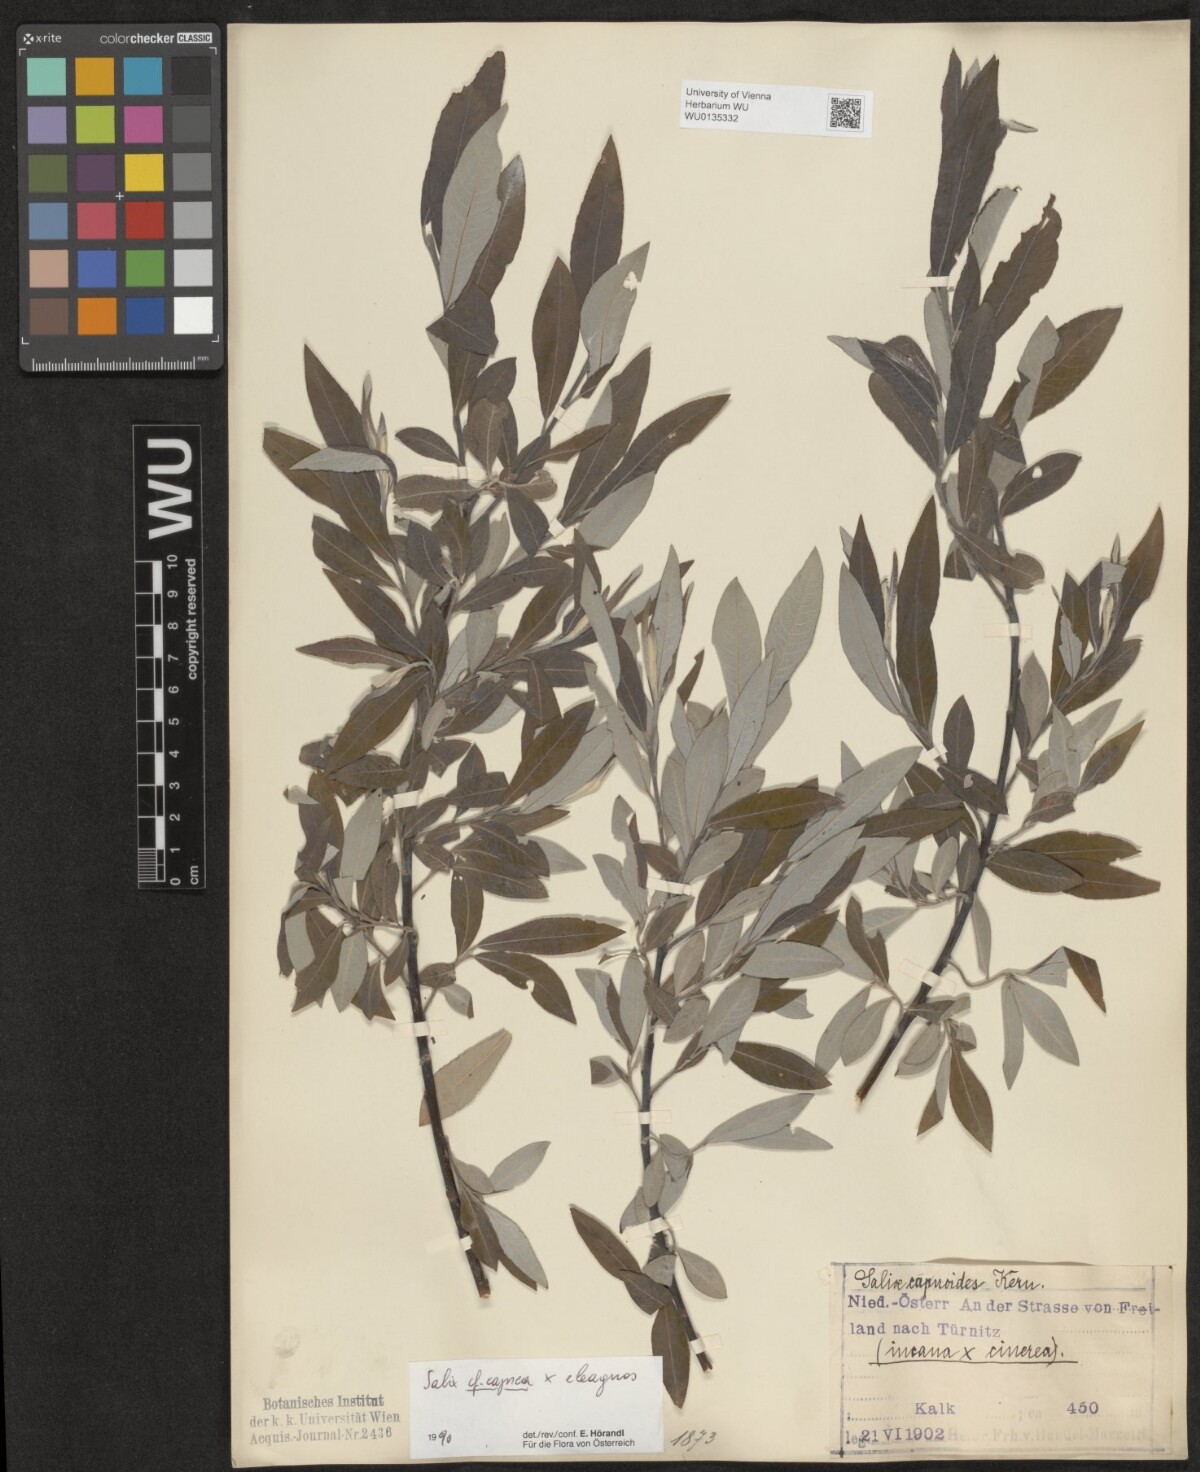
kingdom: Plantae
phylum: Tracheophyta
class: Magnoliopsida
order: Malpighiales
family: Salicaceae
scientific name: Salicaceae
